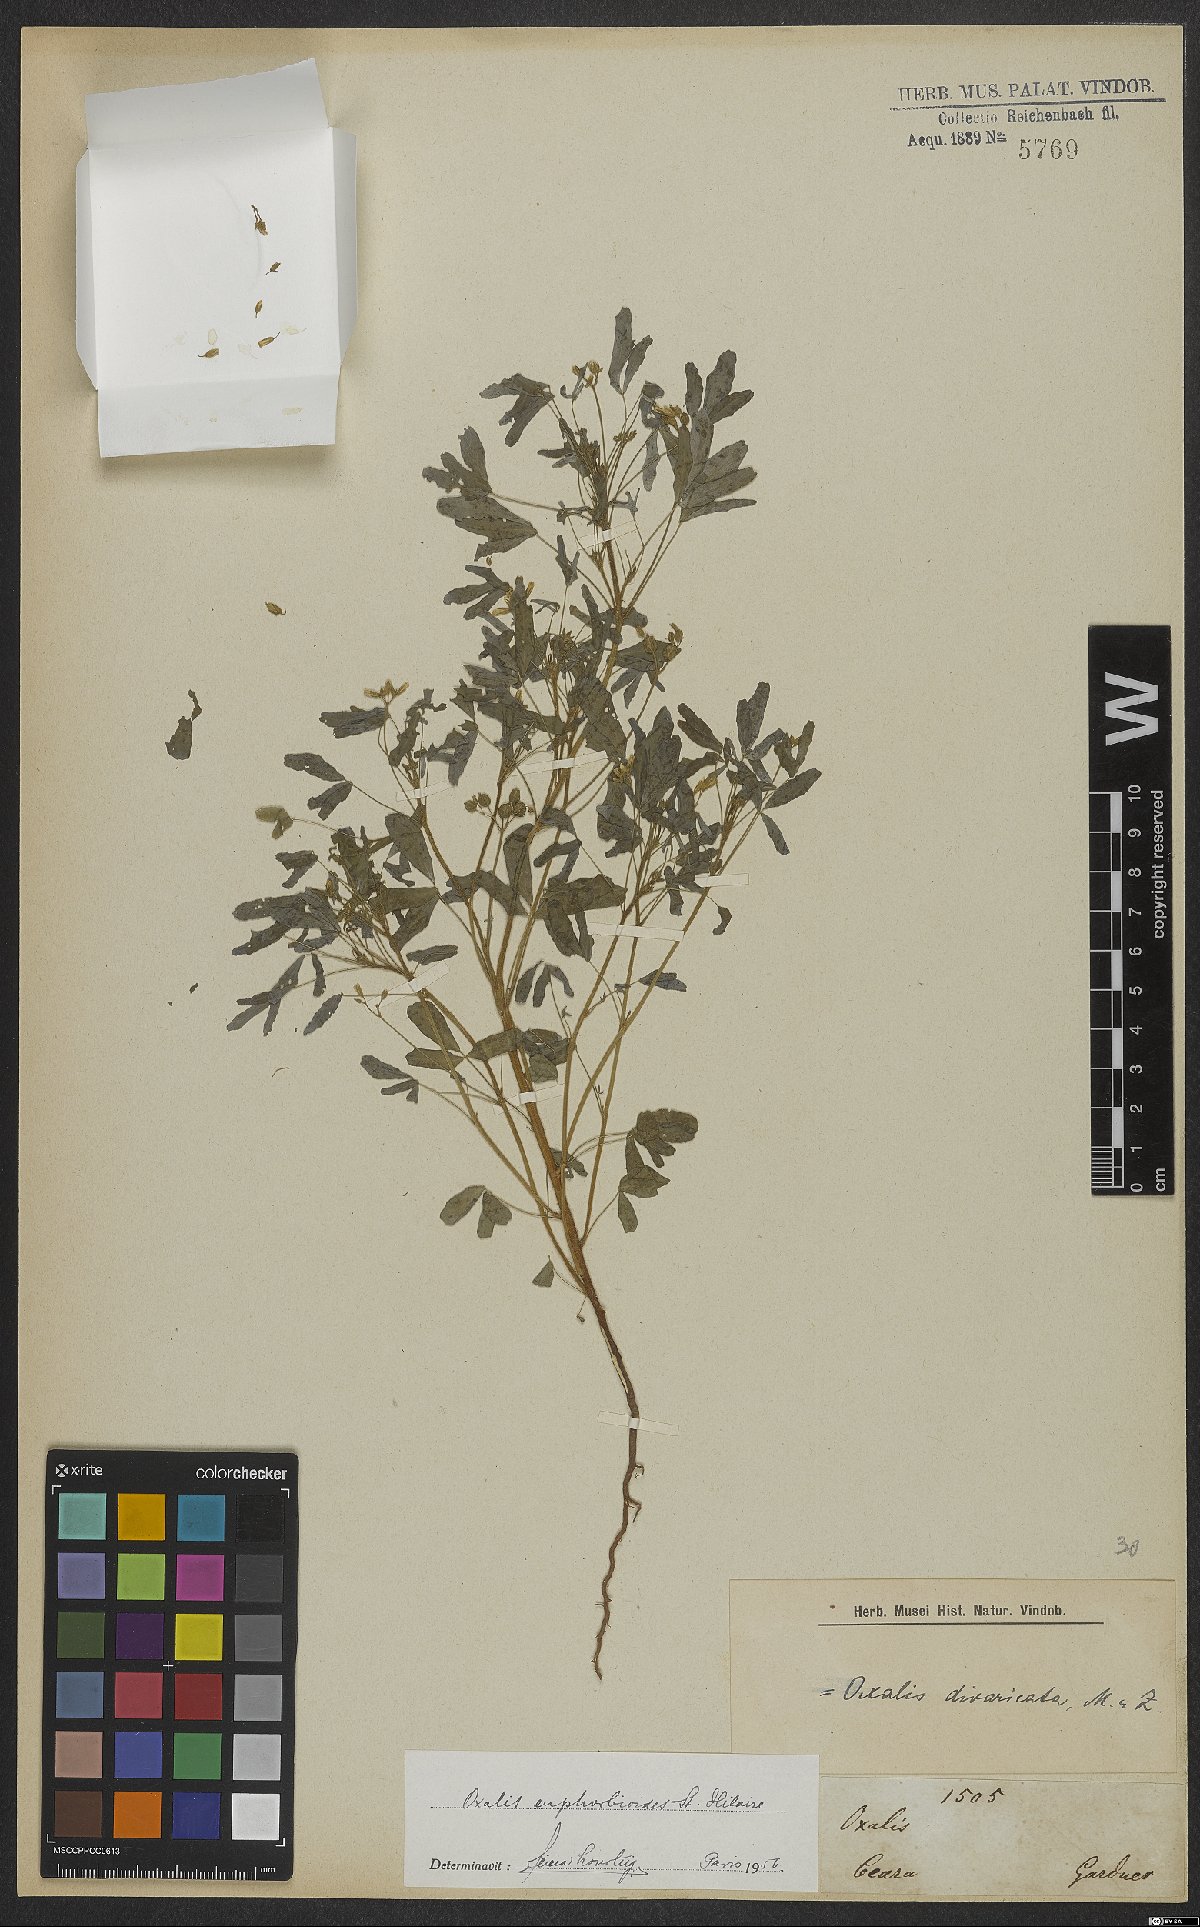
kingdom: Plantae
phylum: Tracheophyta
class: Magnoliopsida
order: Oxalidales
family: Oxalidaceae
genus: Oxalis
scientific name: Oxalis divaricata
